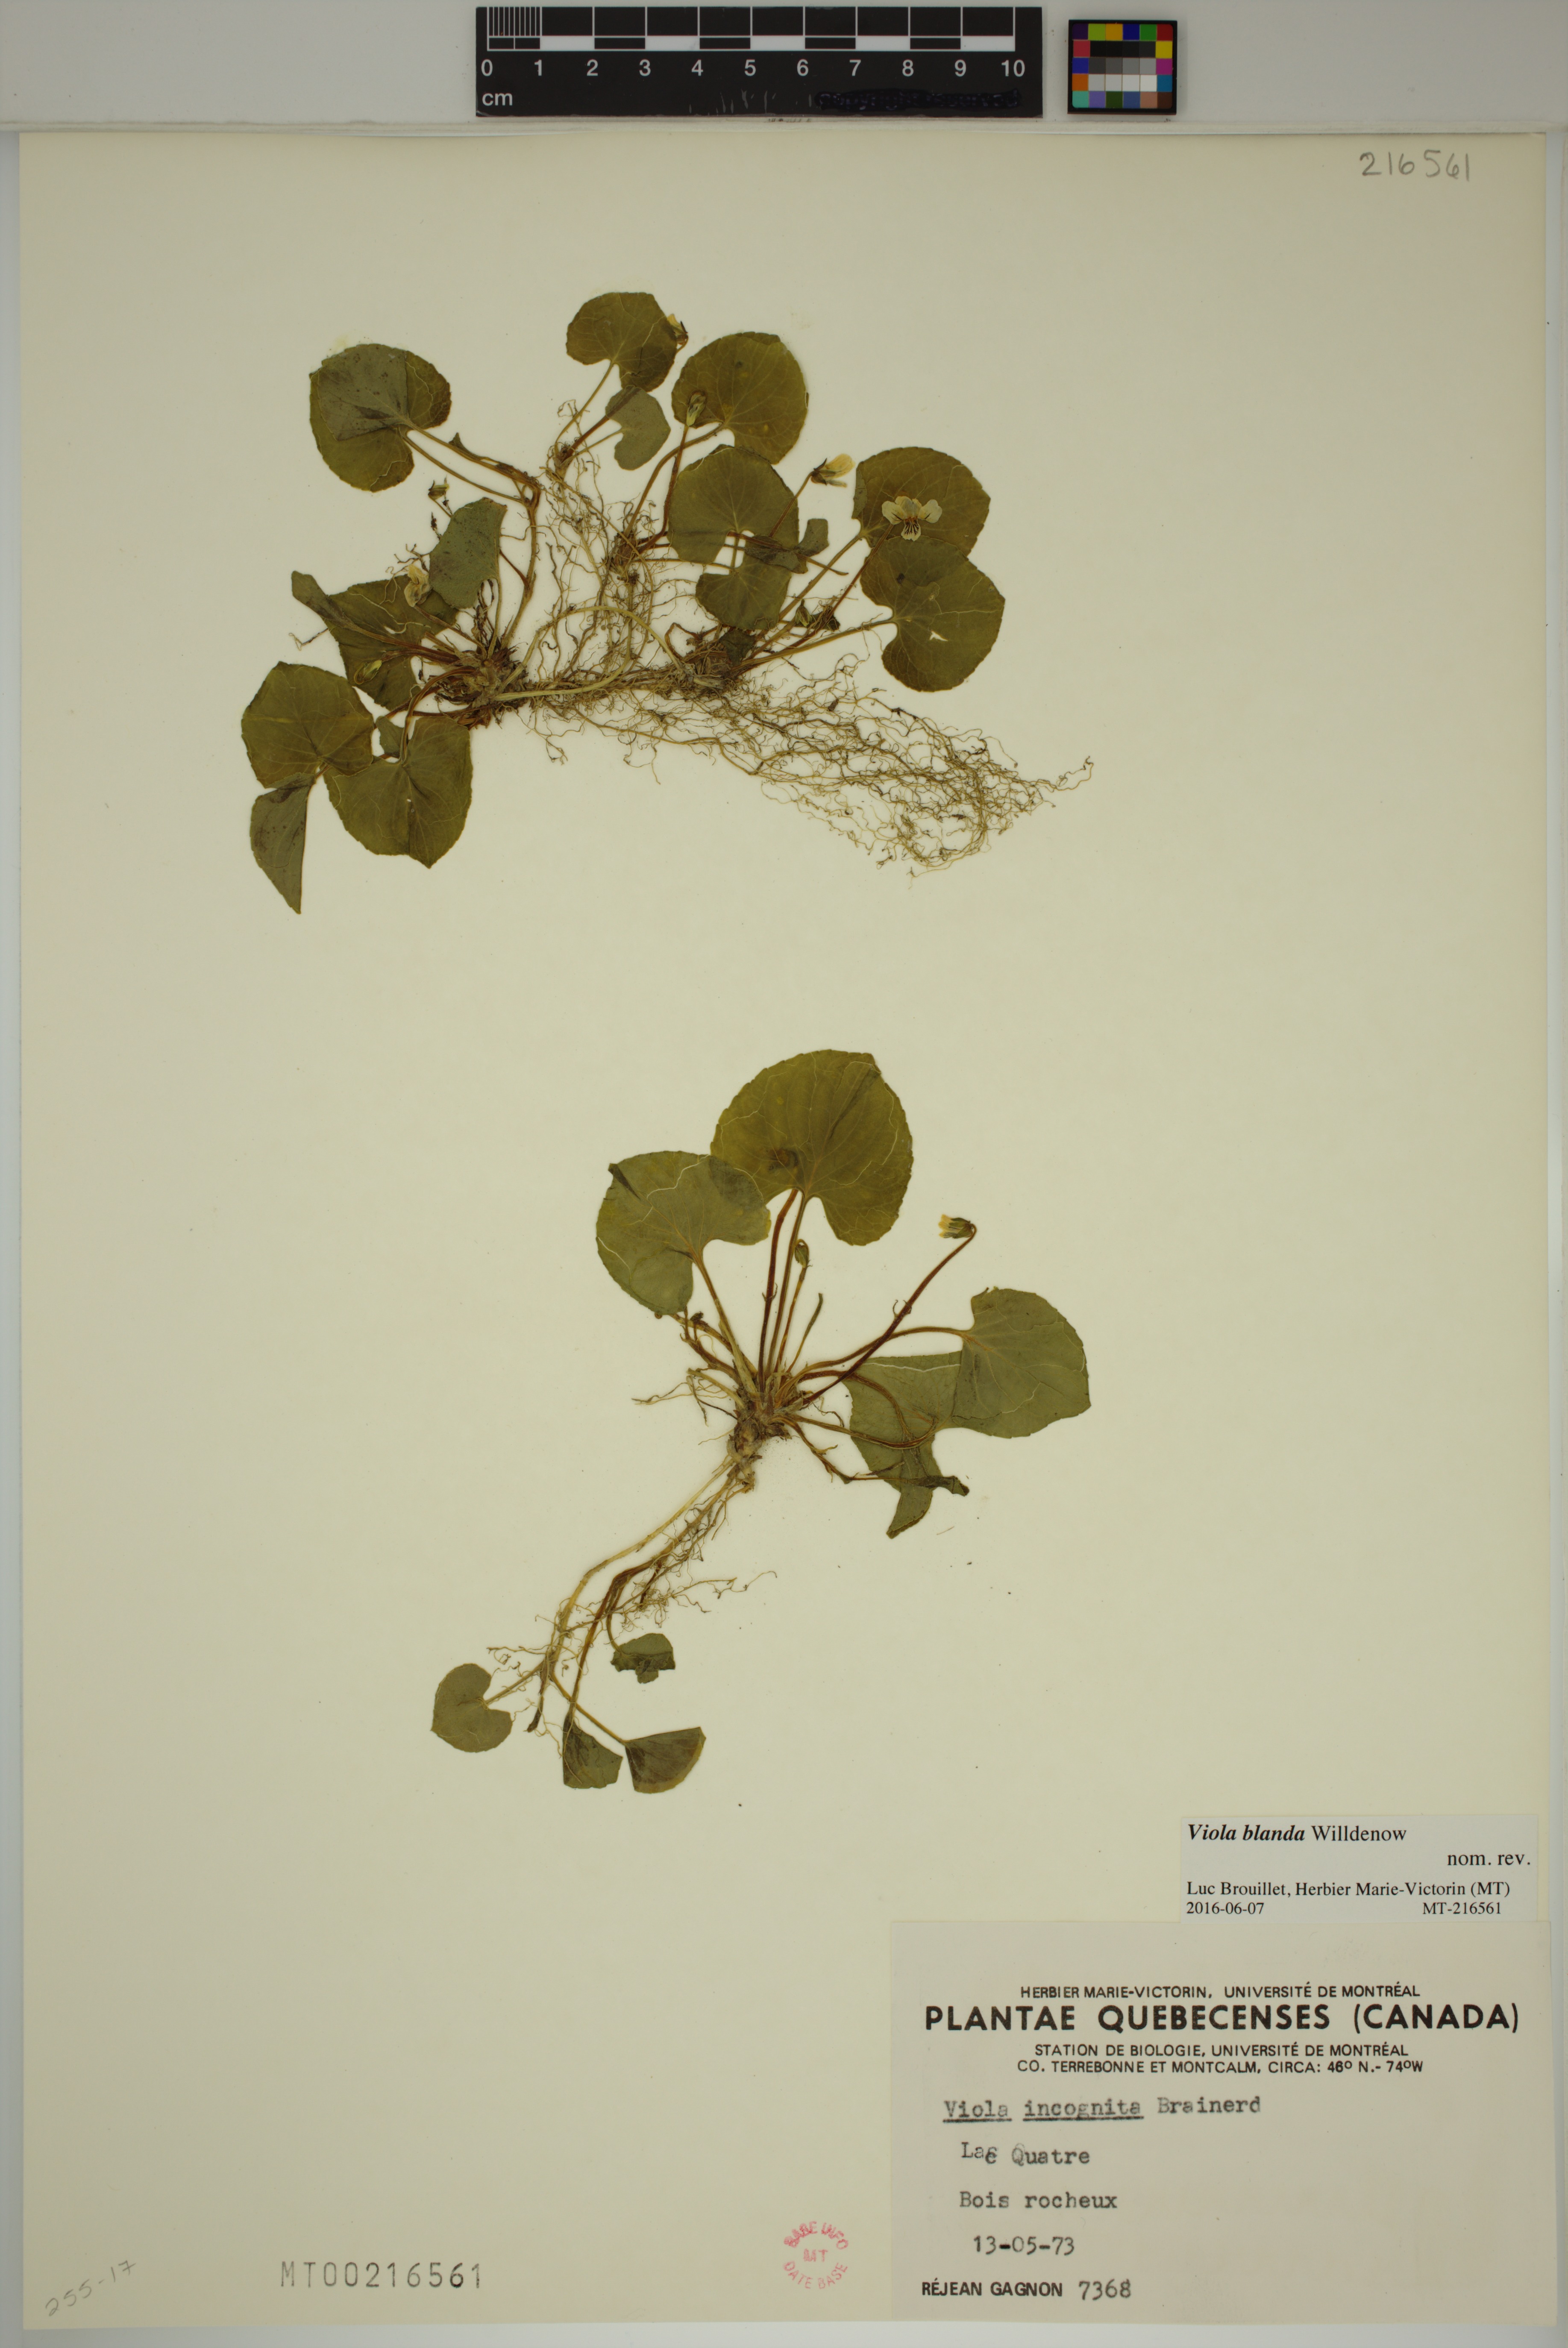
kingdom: Plantae
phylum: Tracheophyta
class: Magnoliopsida
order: Malpighiales
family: Violaceae
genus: Viola
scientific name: Viola blanda
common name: Sweet white violet
